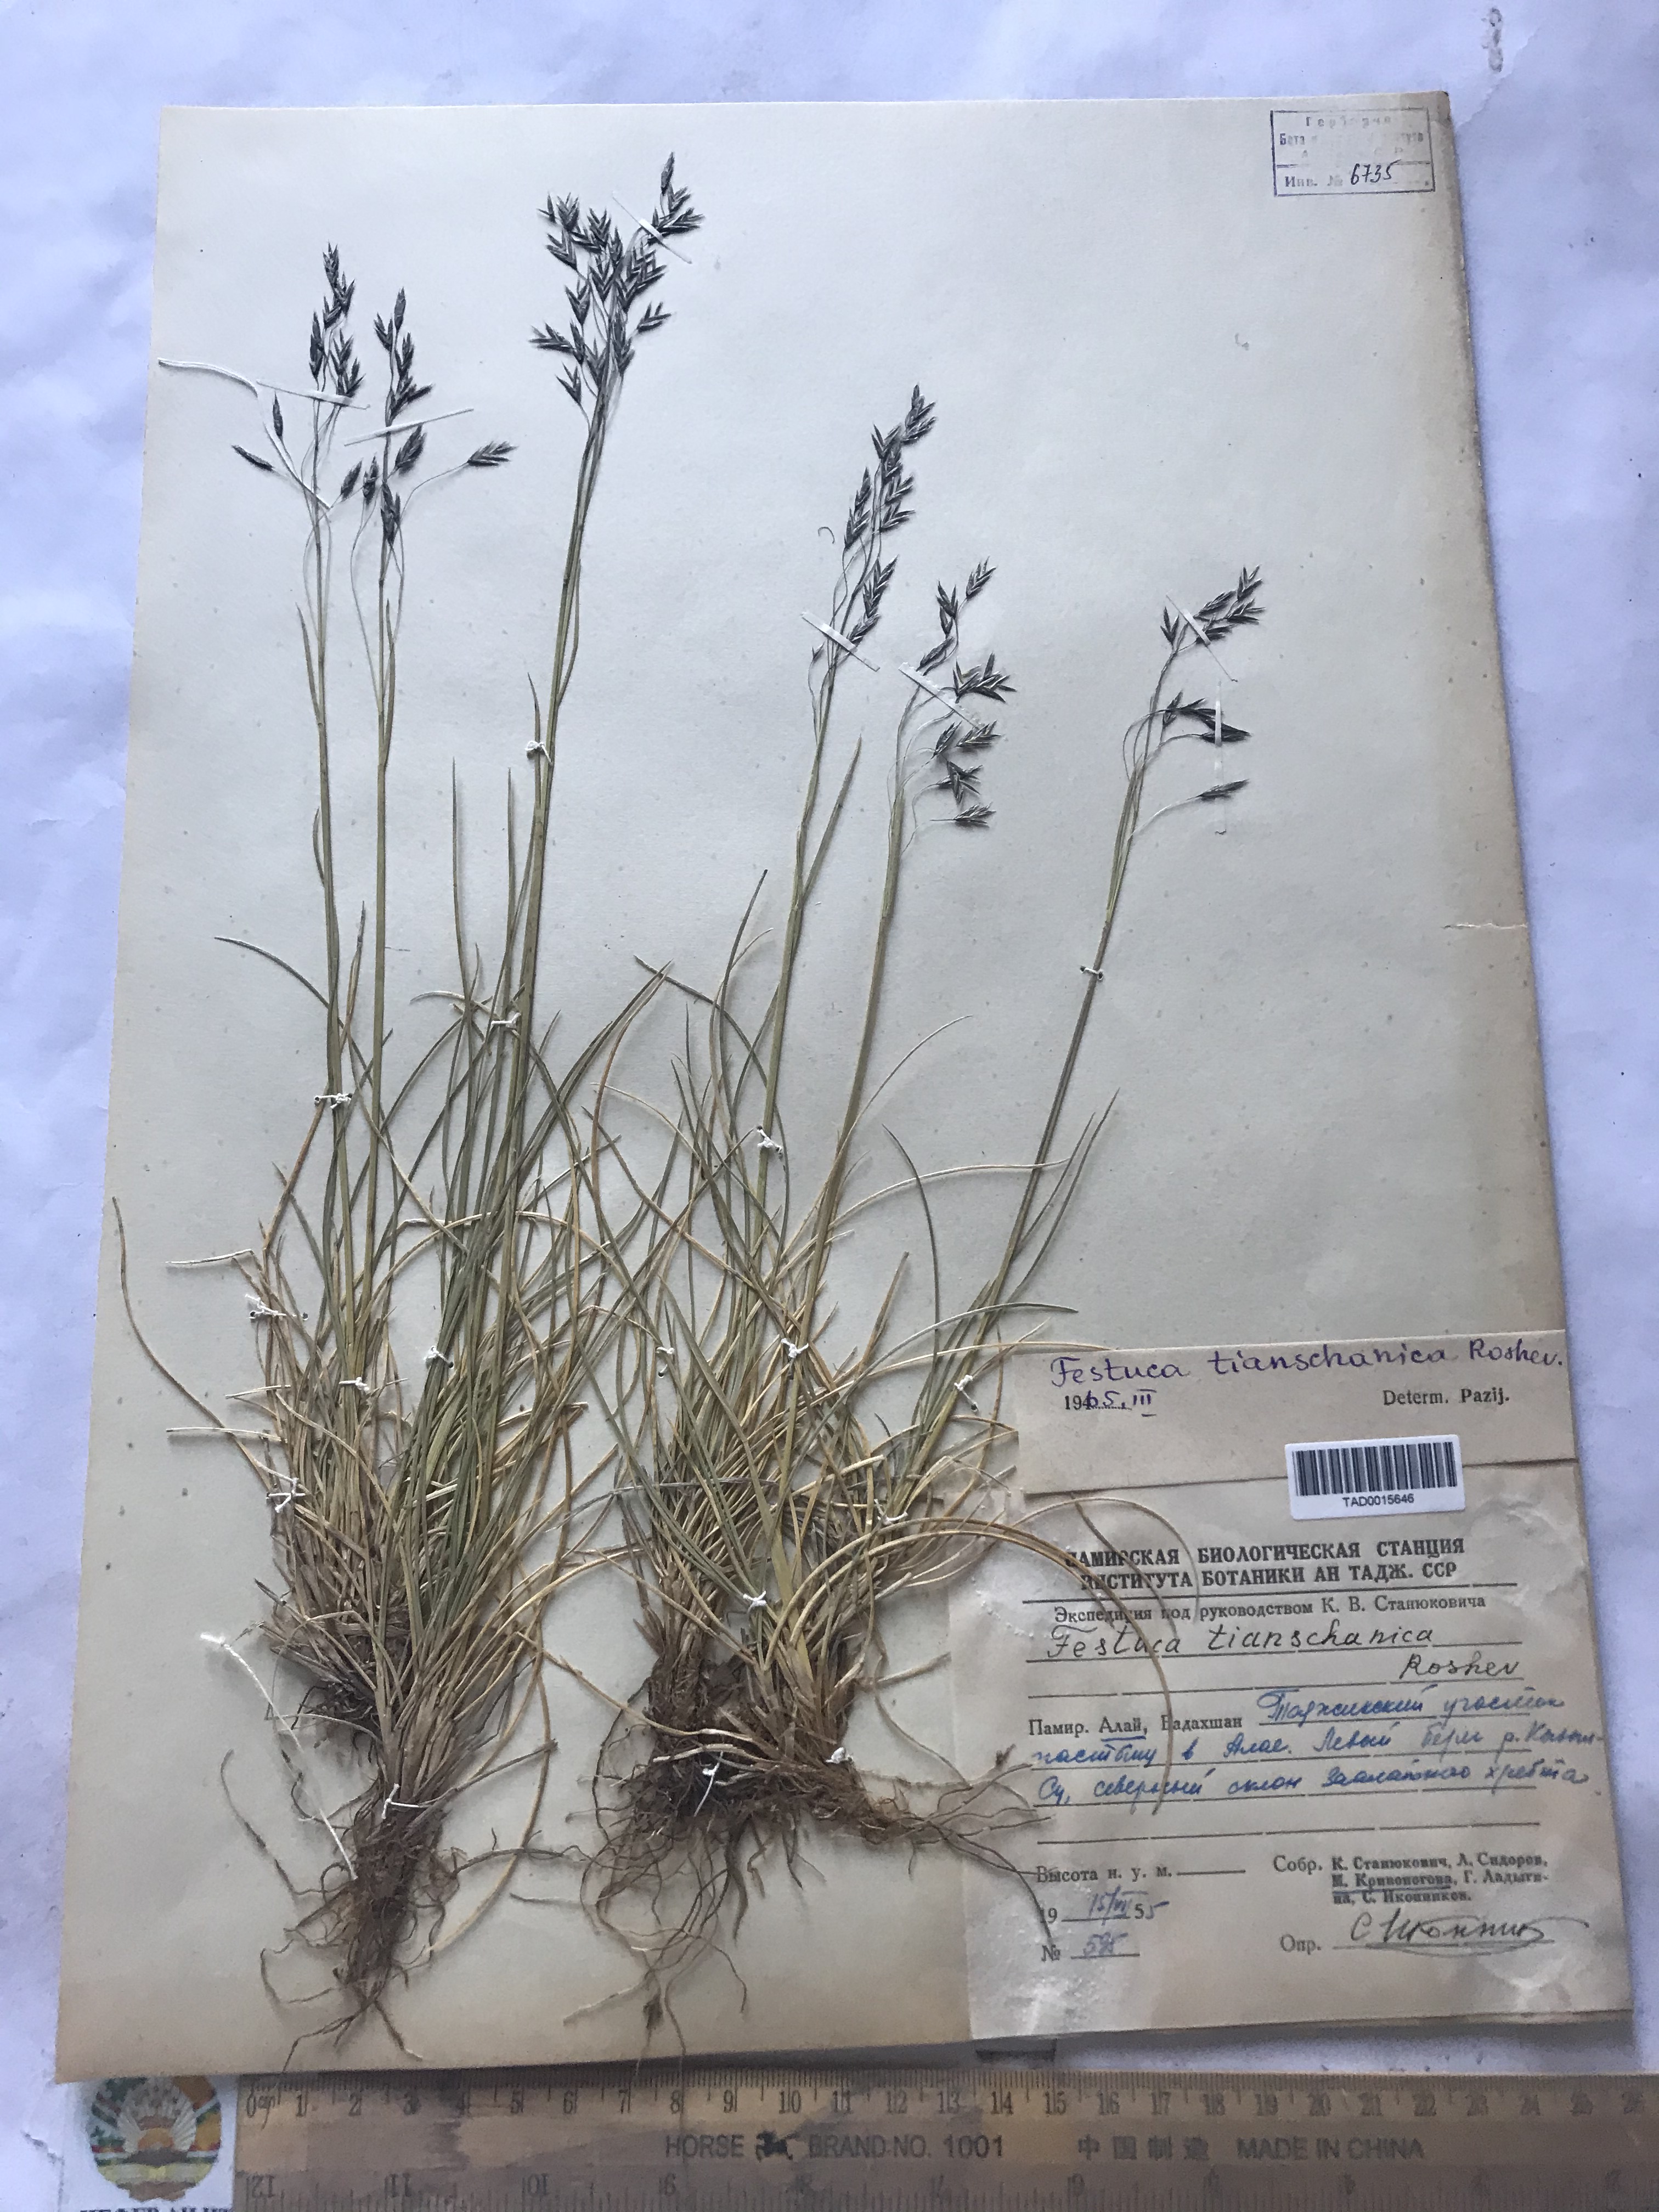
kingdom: Plantae
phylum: Tracheophyta
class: Liliopsida
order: Poales
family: Poaceae
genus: Festuca
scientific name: Festuca alatavica
